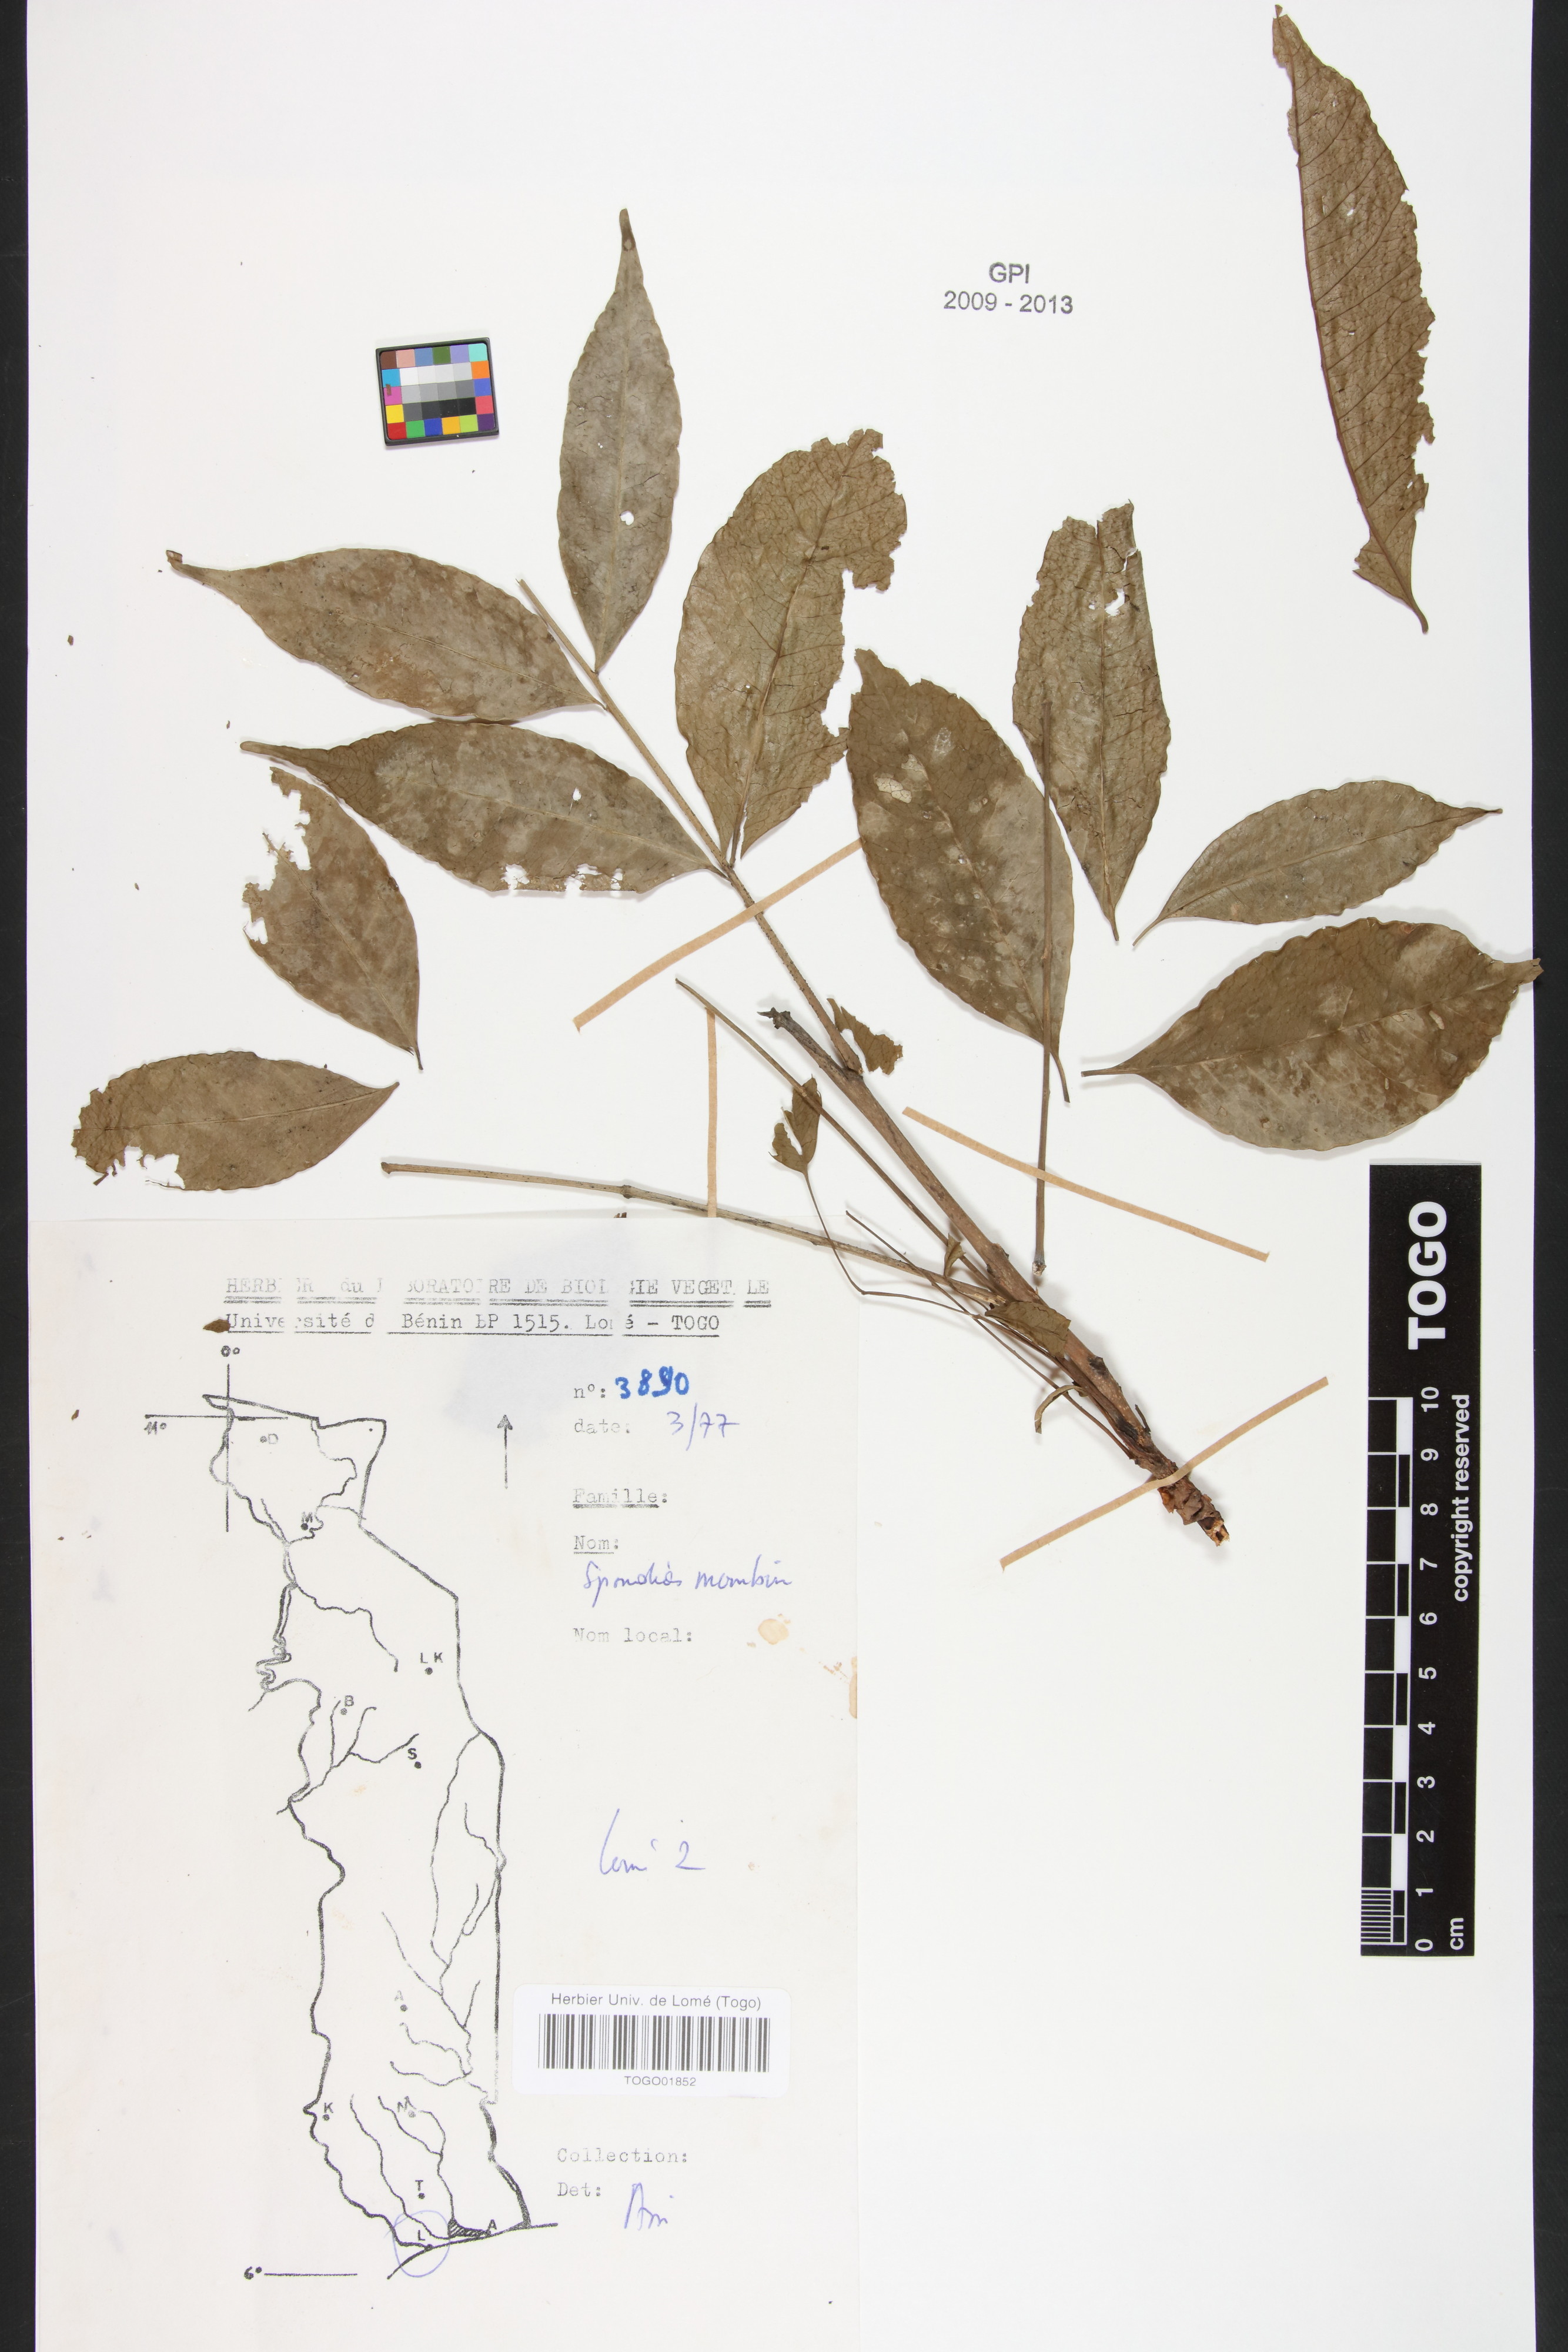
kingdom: Plantae
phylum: Tracheophyta
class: Magnoliopsida
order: Sapindales
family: Anacardiaceae
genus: Spondias
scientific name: Spondias mombin
